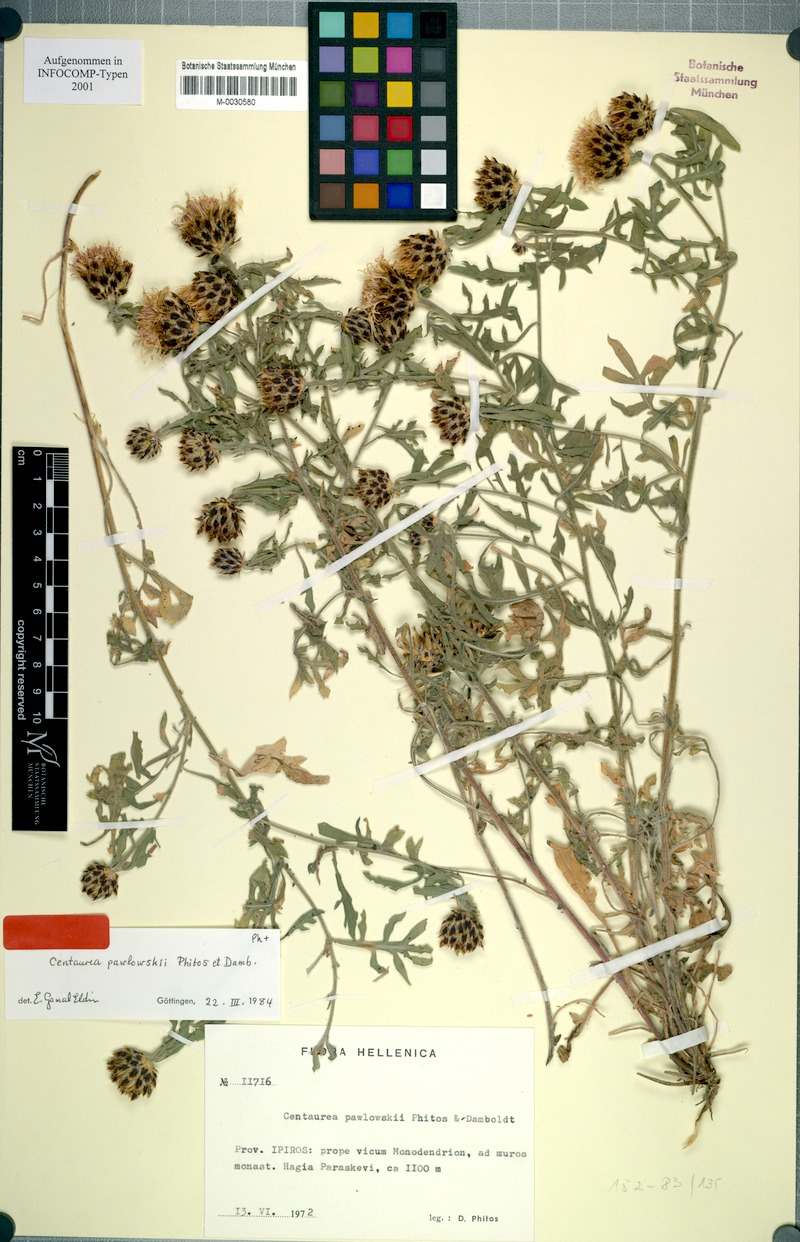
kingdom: Plantae
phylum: Tracheophyta
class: Magnoliopsida
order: Asterales
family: Asteraceae
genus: Centaurea
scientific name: Centaurea pawlowskii
